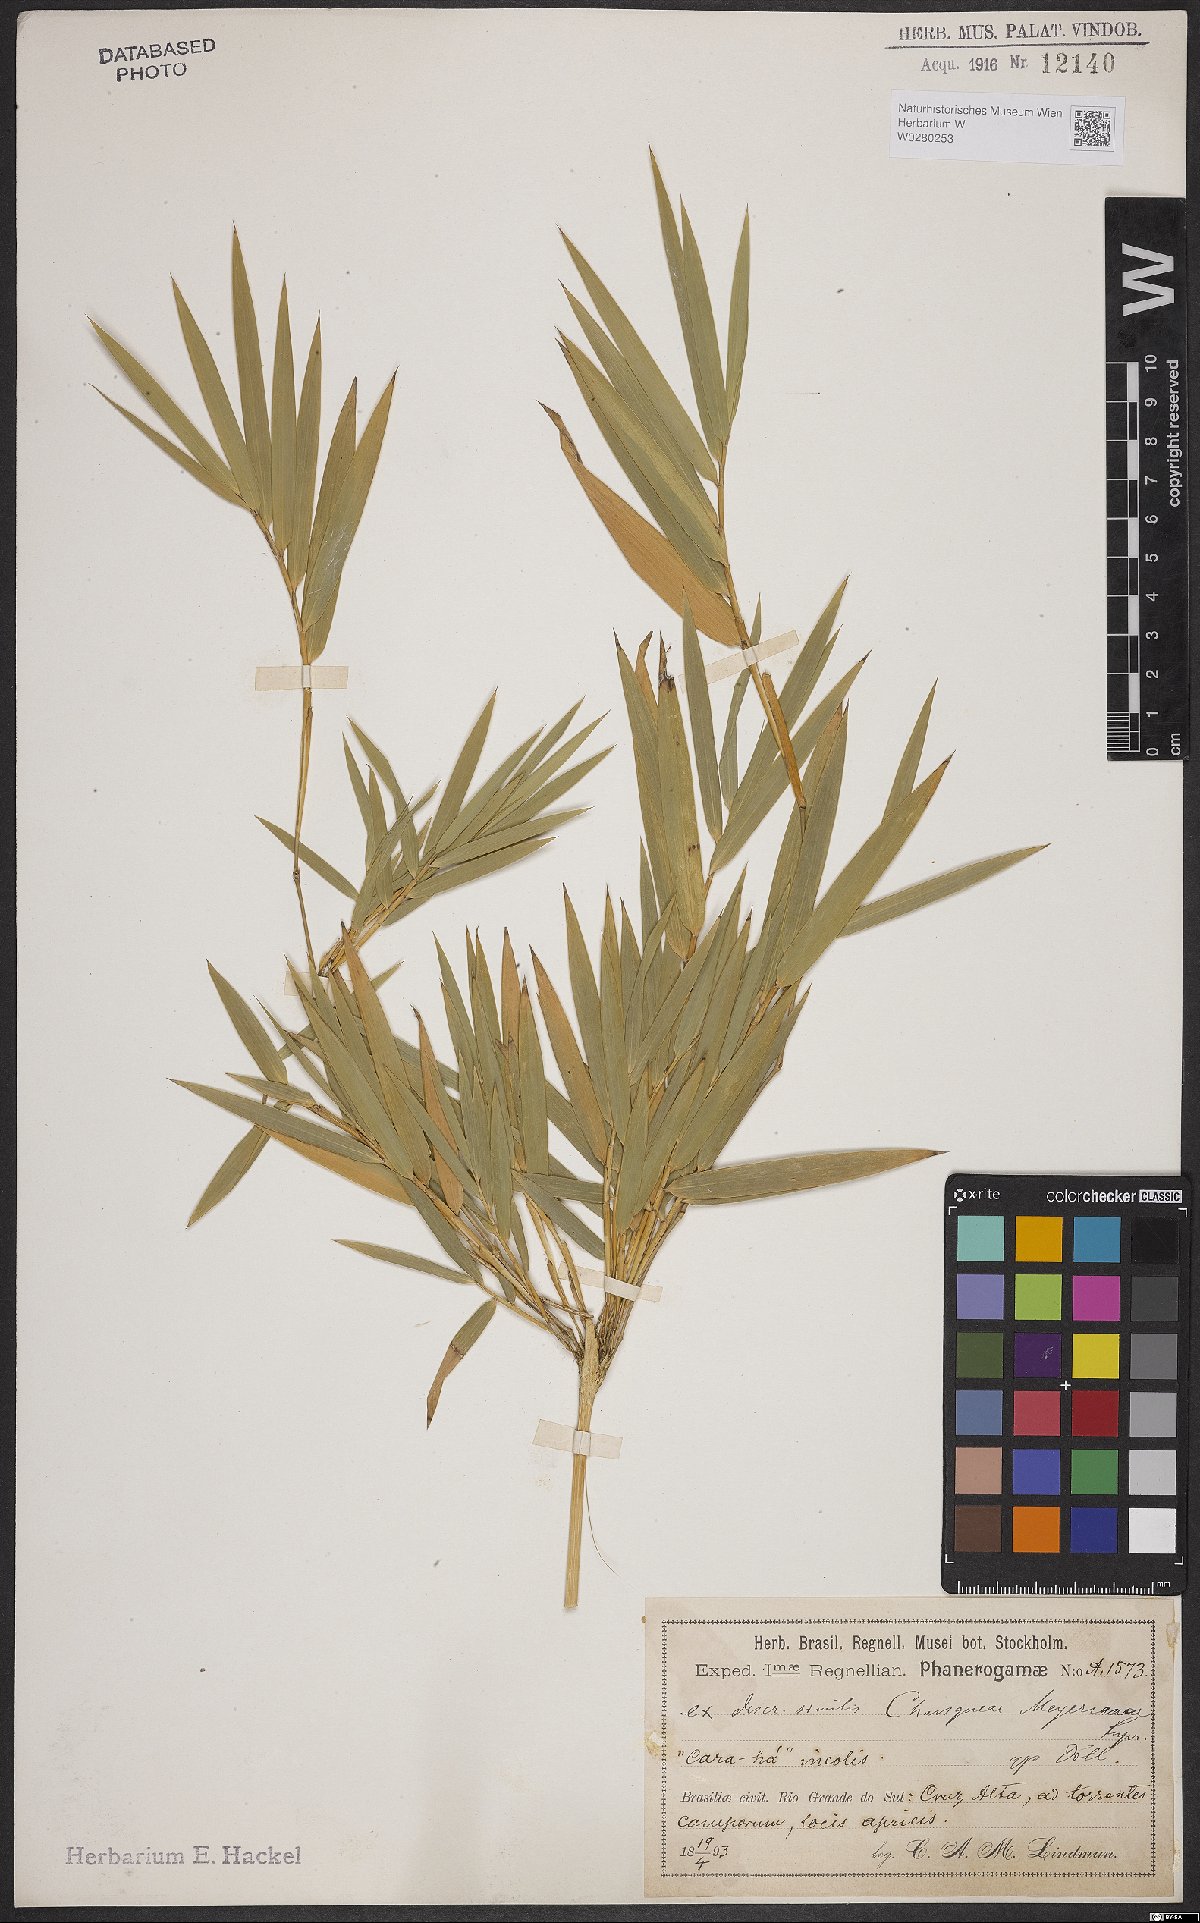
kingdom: Plantae
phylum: Tracheophyta
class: Liliopsida
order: Poales
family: Poaceae
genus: Chusquea
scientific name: Chusquea meyeriana
